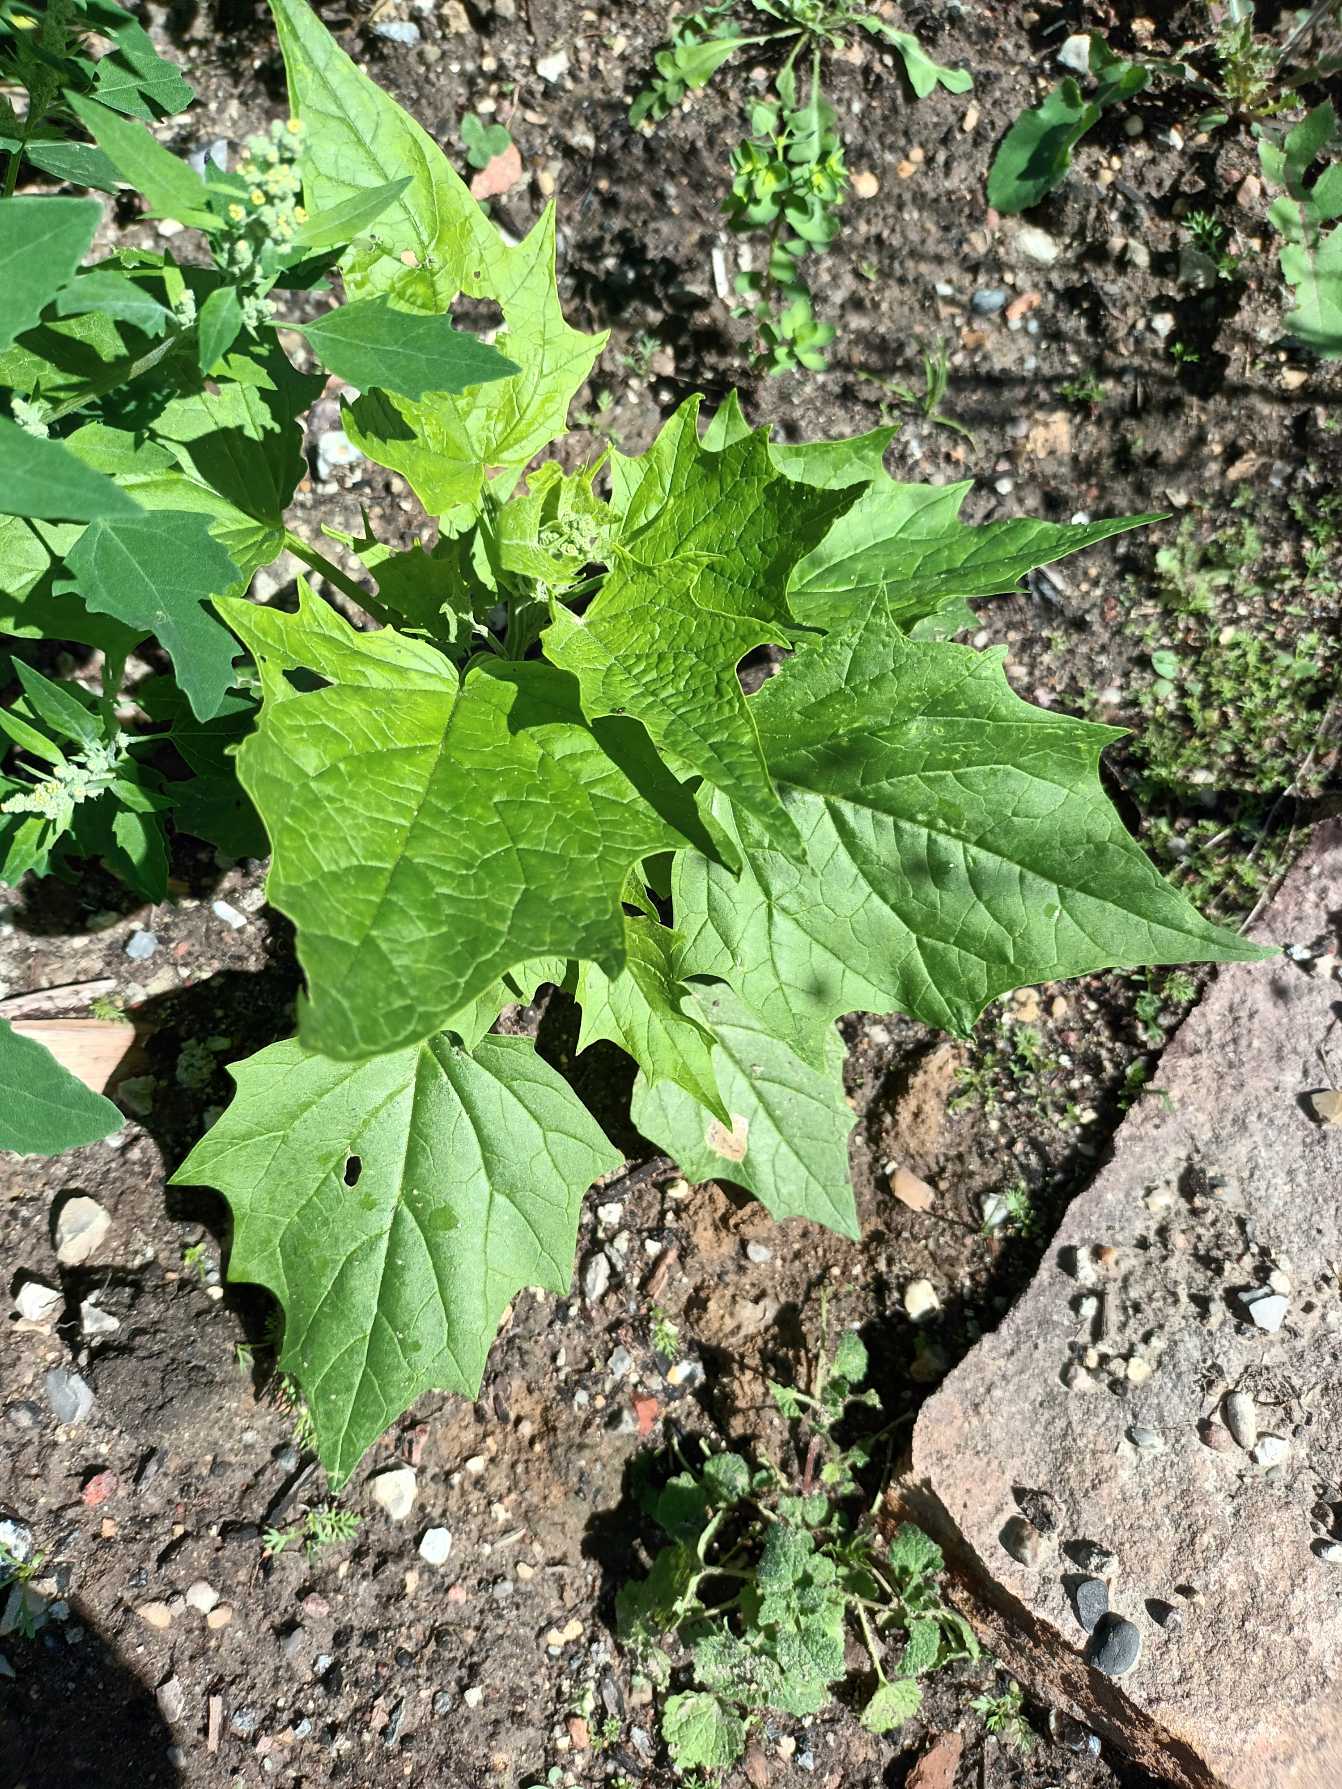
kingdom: Plantae
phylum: Tracheophyta
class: Magnoliopsida
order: Caryophyllales
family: Amaranthaceae
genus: Chenopodiastrum
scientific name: Chenopodiastrum hybridum
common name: Hjertebladet gåsefod
